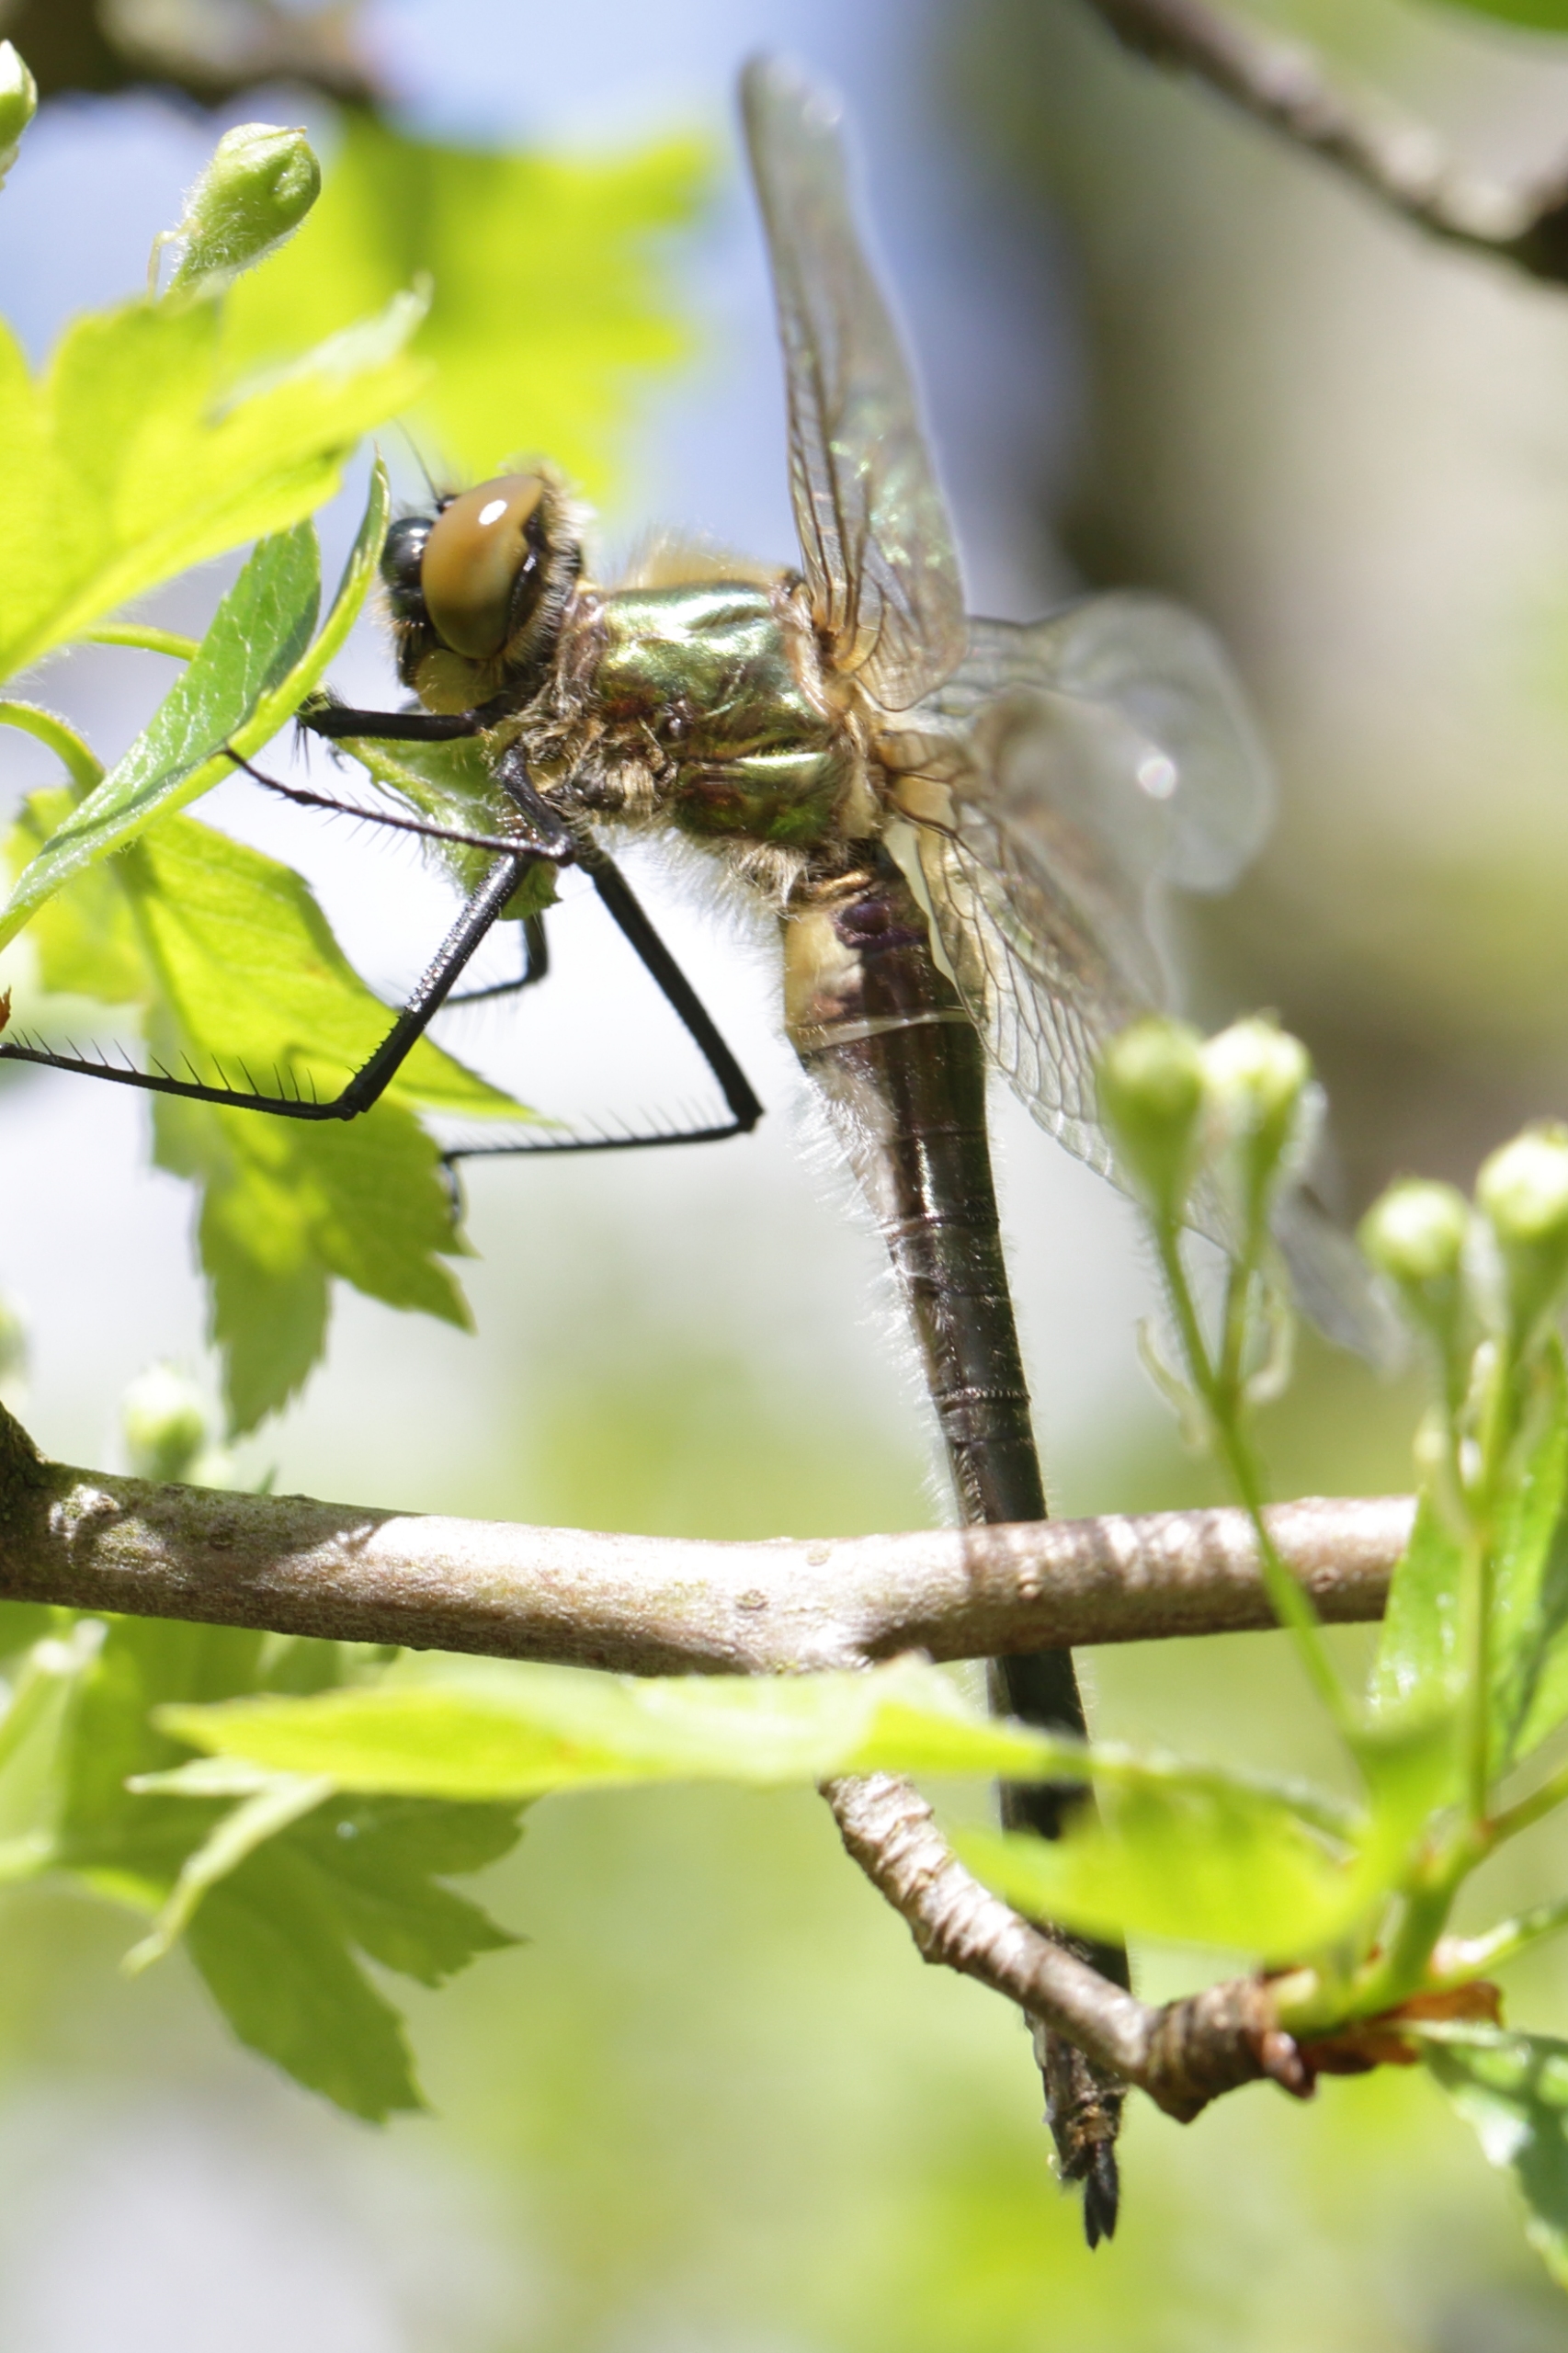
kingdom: Animalia
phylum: Arthropoda
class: Insecta
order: Odonata
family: Corduliidae
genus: Cordulia
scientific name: Cordulia aenea
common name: Grøn smaragdlibel
